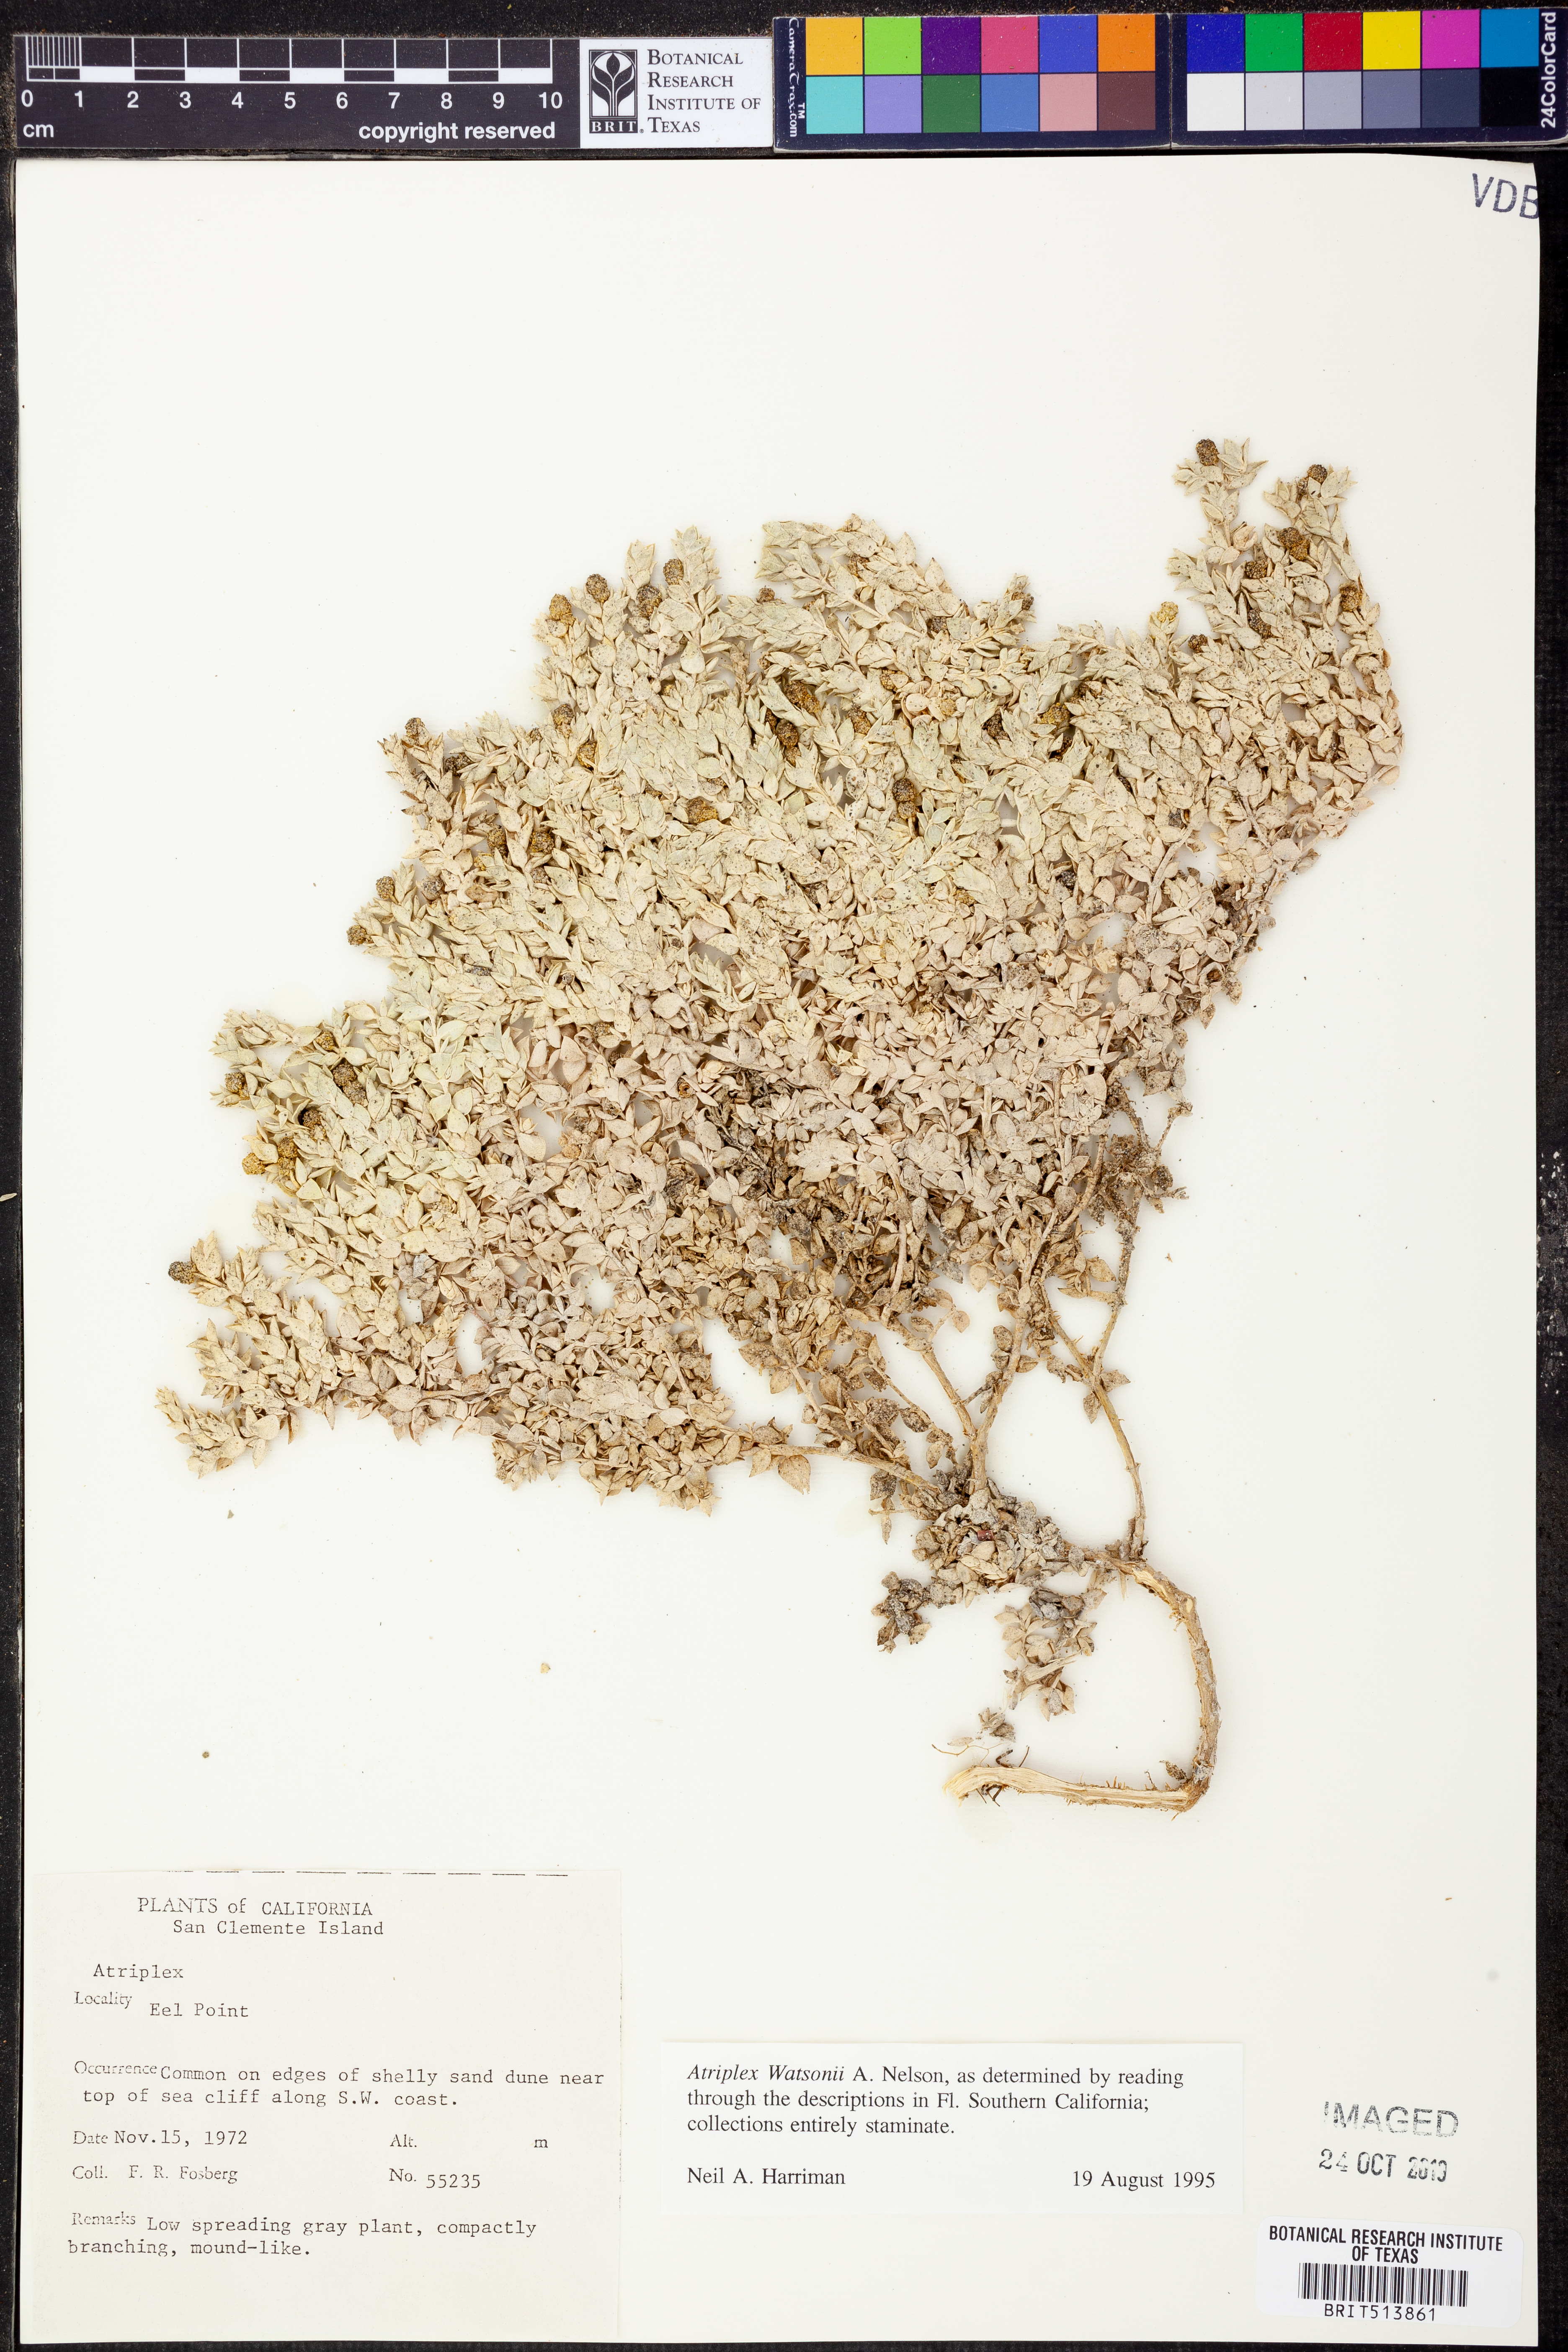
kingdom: Plantae
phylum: Tracheophyta
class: Magnoliopsida
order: Caryophyllales
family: Amaranthaceae
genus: Atriplex
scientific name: Atriplex watsonii
